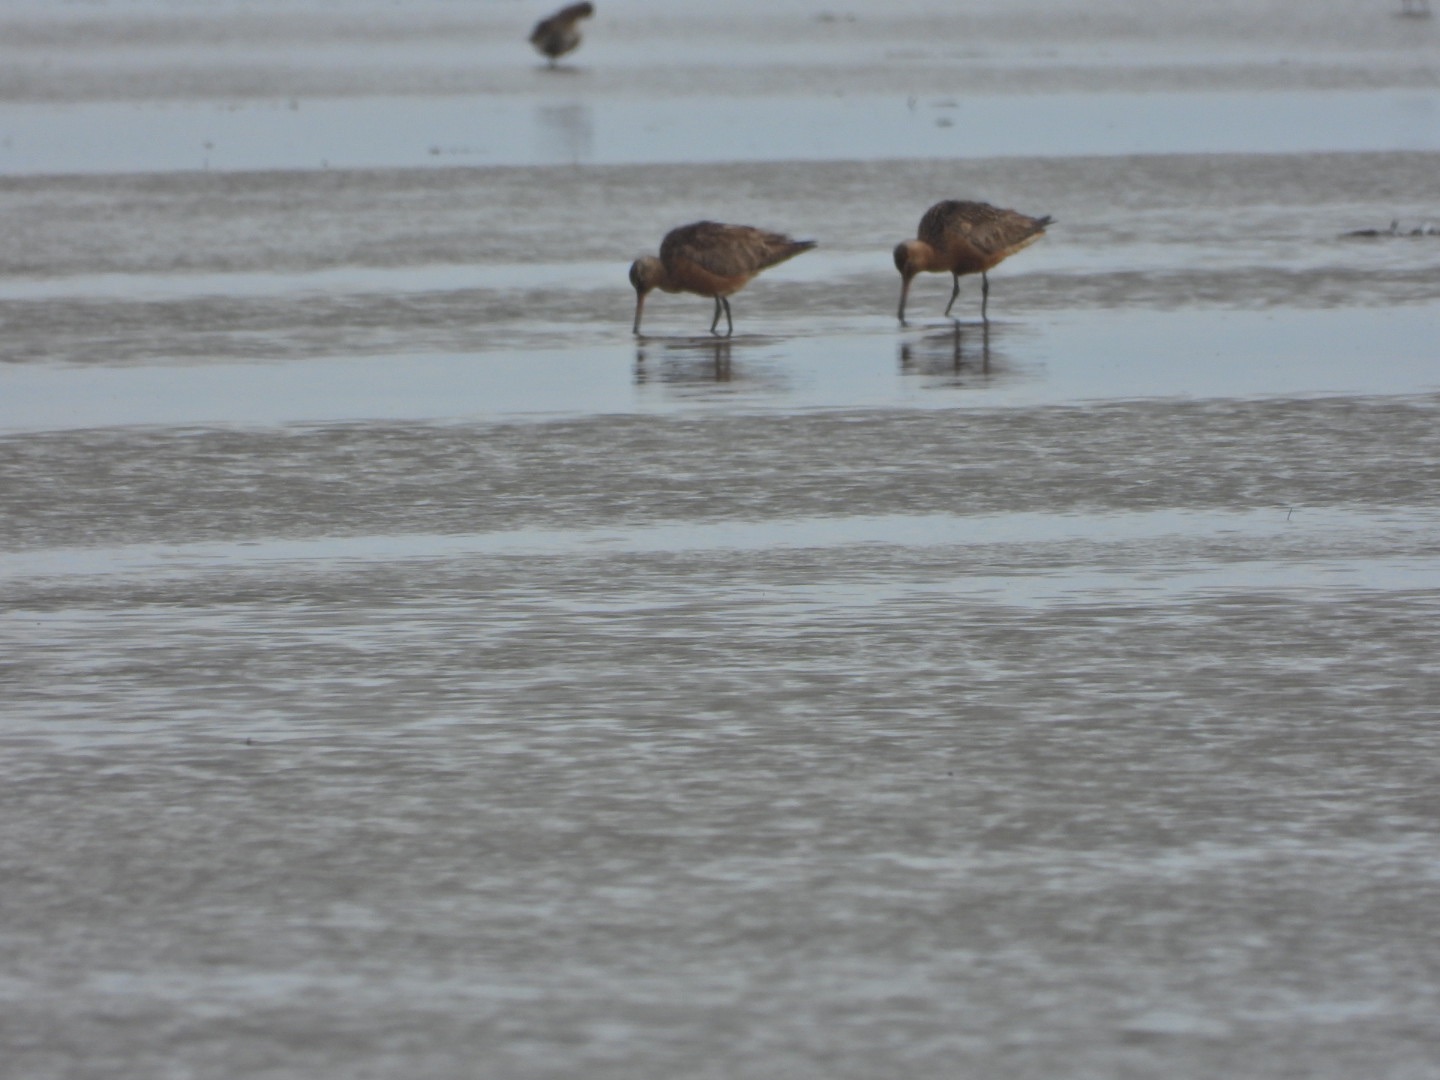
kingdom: Animalia
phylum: Chordata
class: Aves
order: Charadriiformes
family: Scolopacidae
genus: Limosa
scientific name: Limosa lapponica
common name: Lille kobbersneppe
